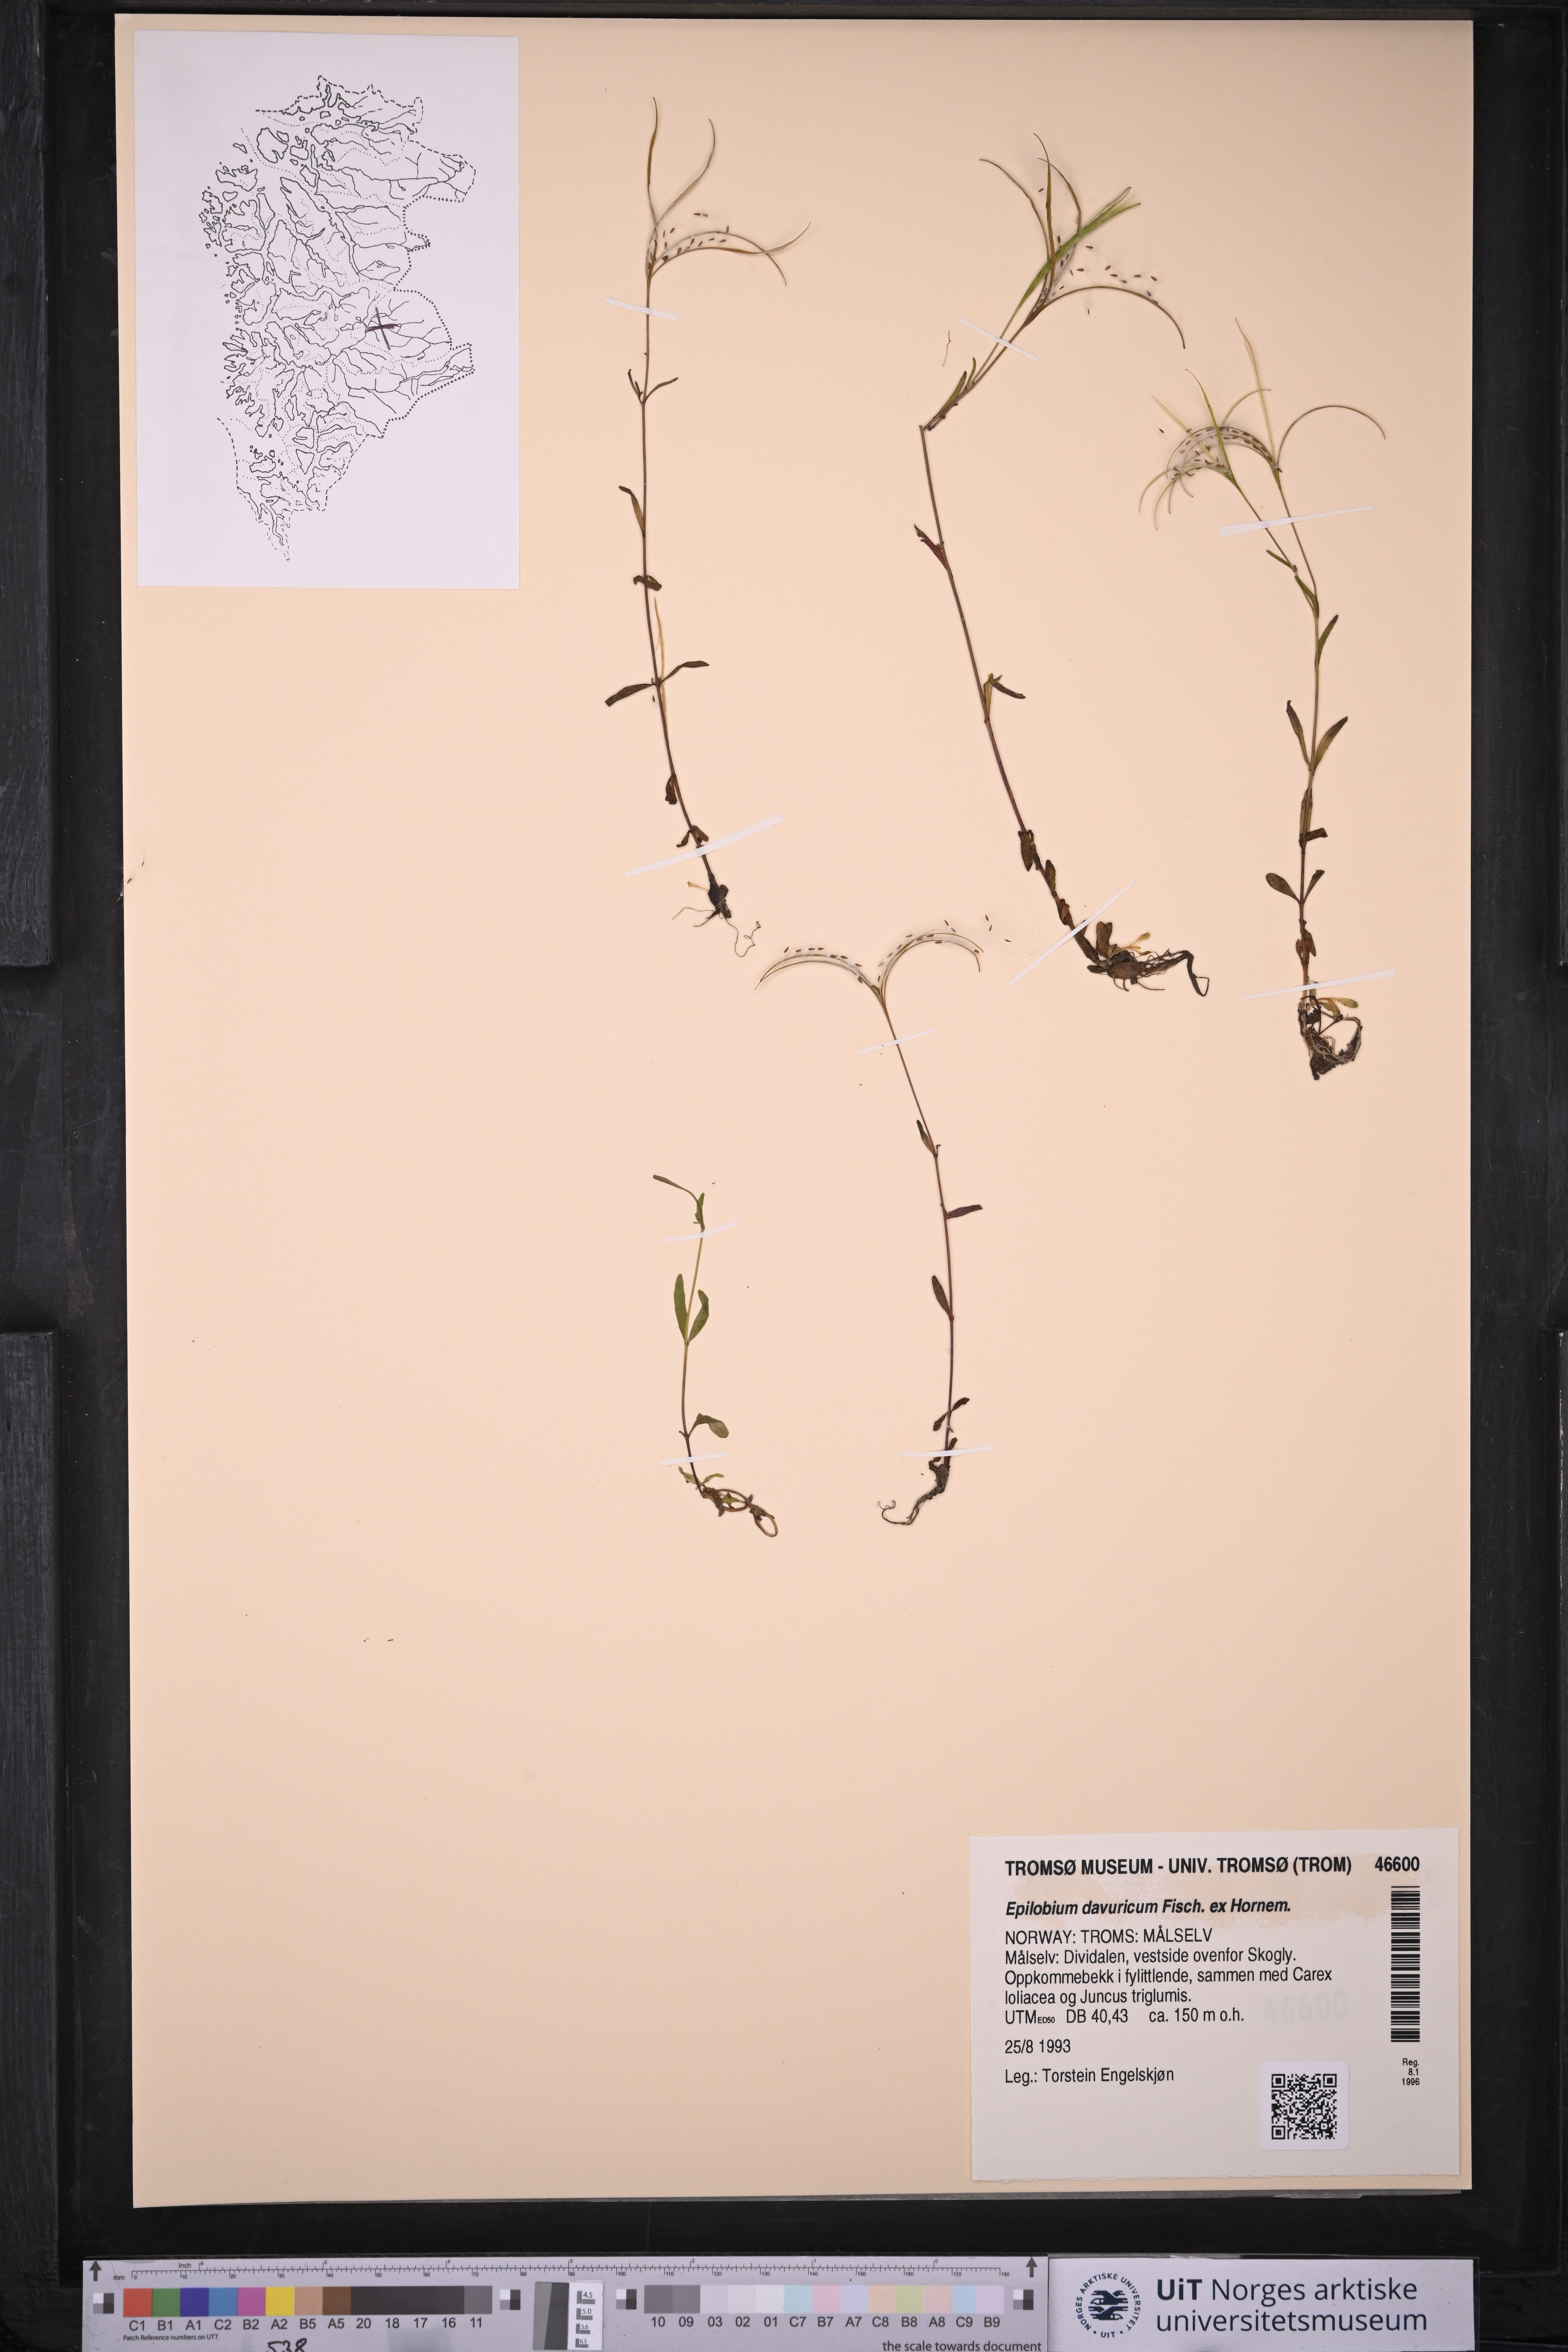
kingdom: Plantae
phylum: Tracheophyta
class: Magnoliopsida
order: Myrtales
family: Onagraceae
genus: Epilobium
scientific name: Epilobium davuricum
